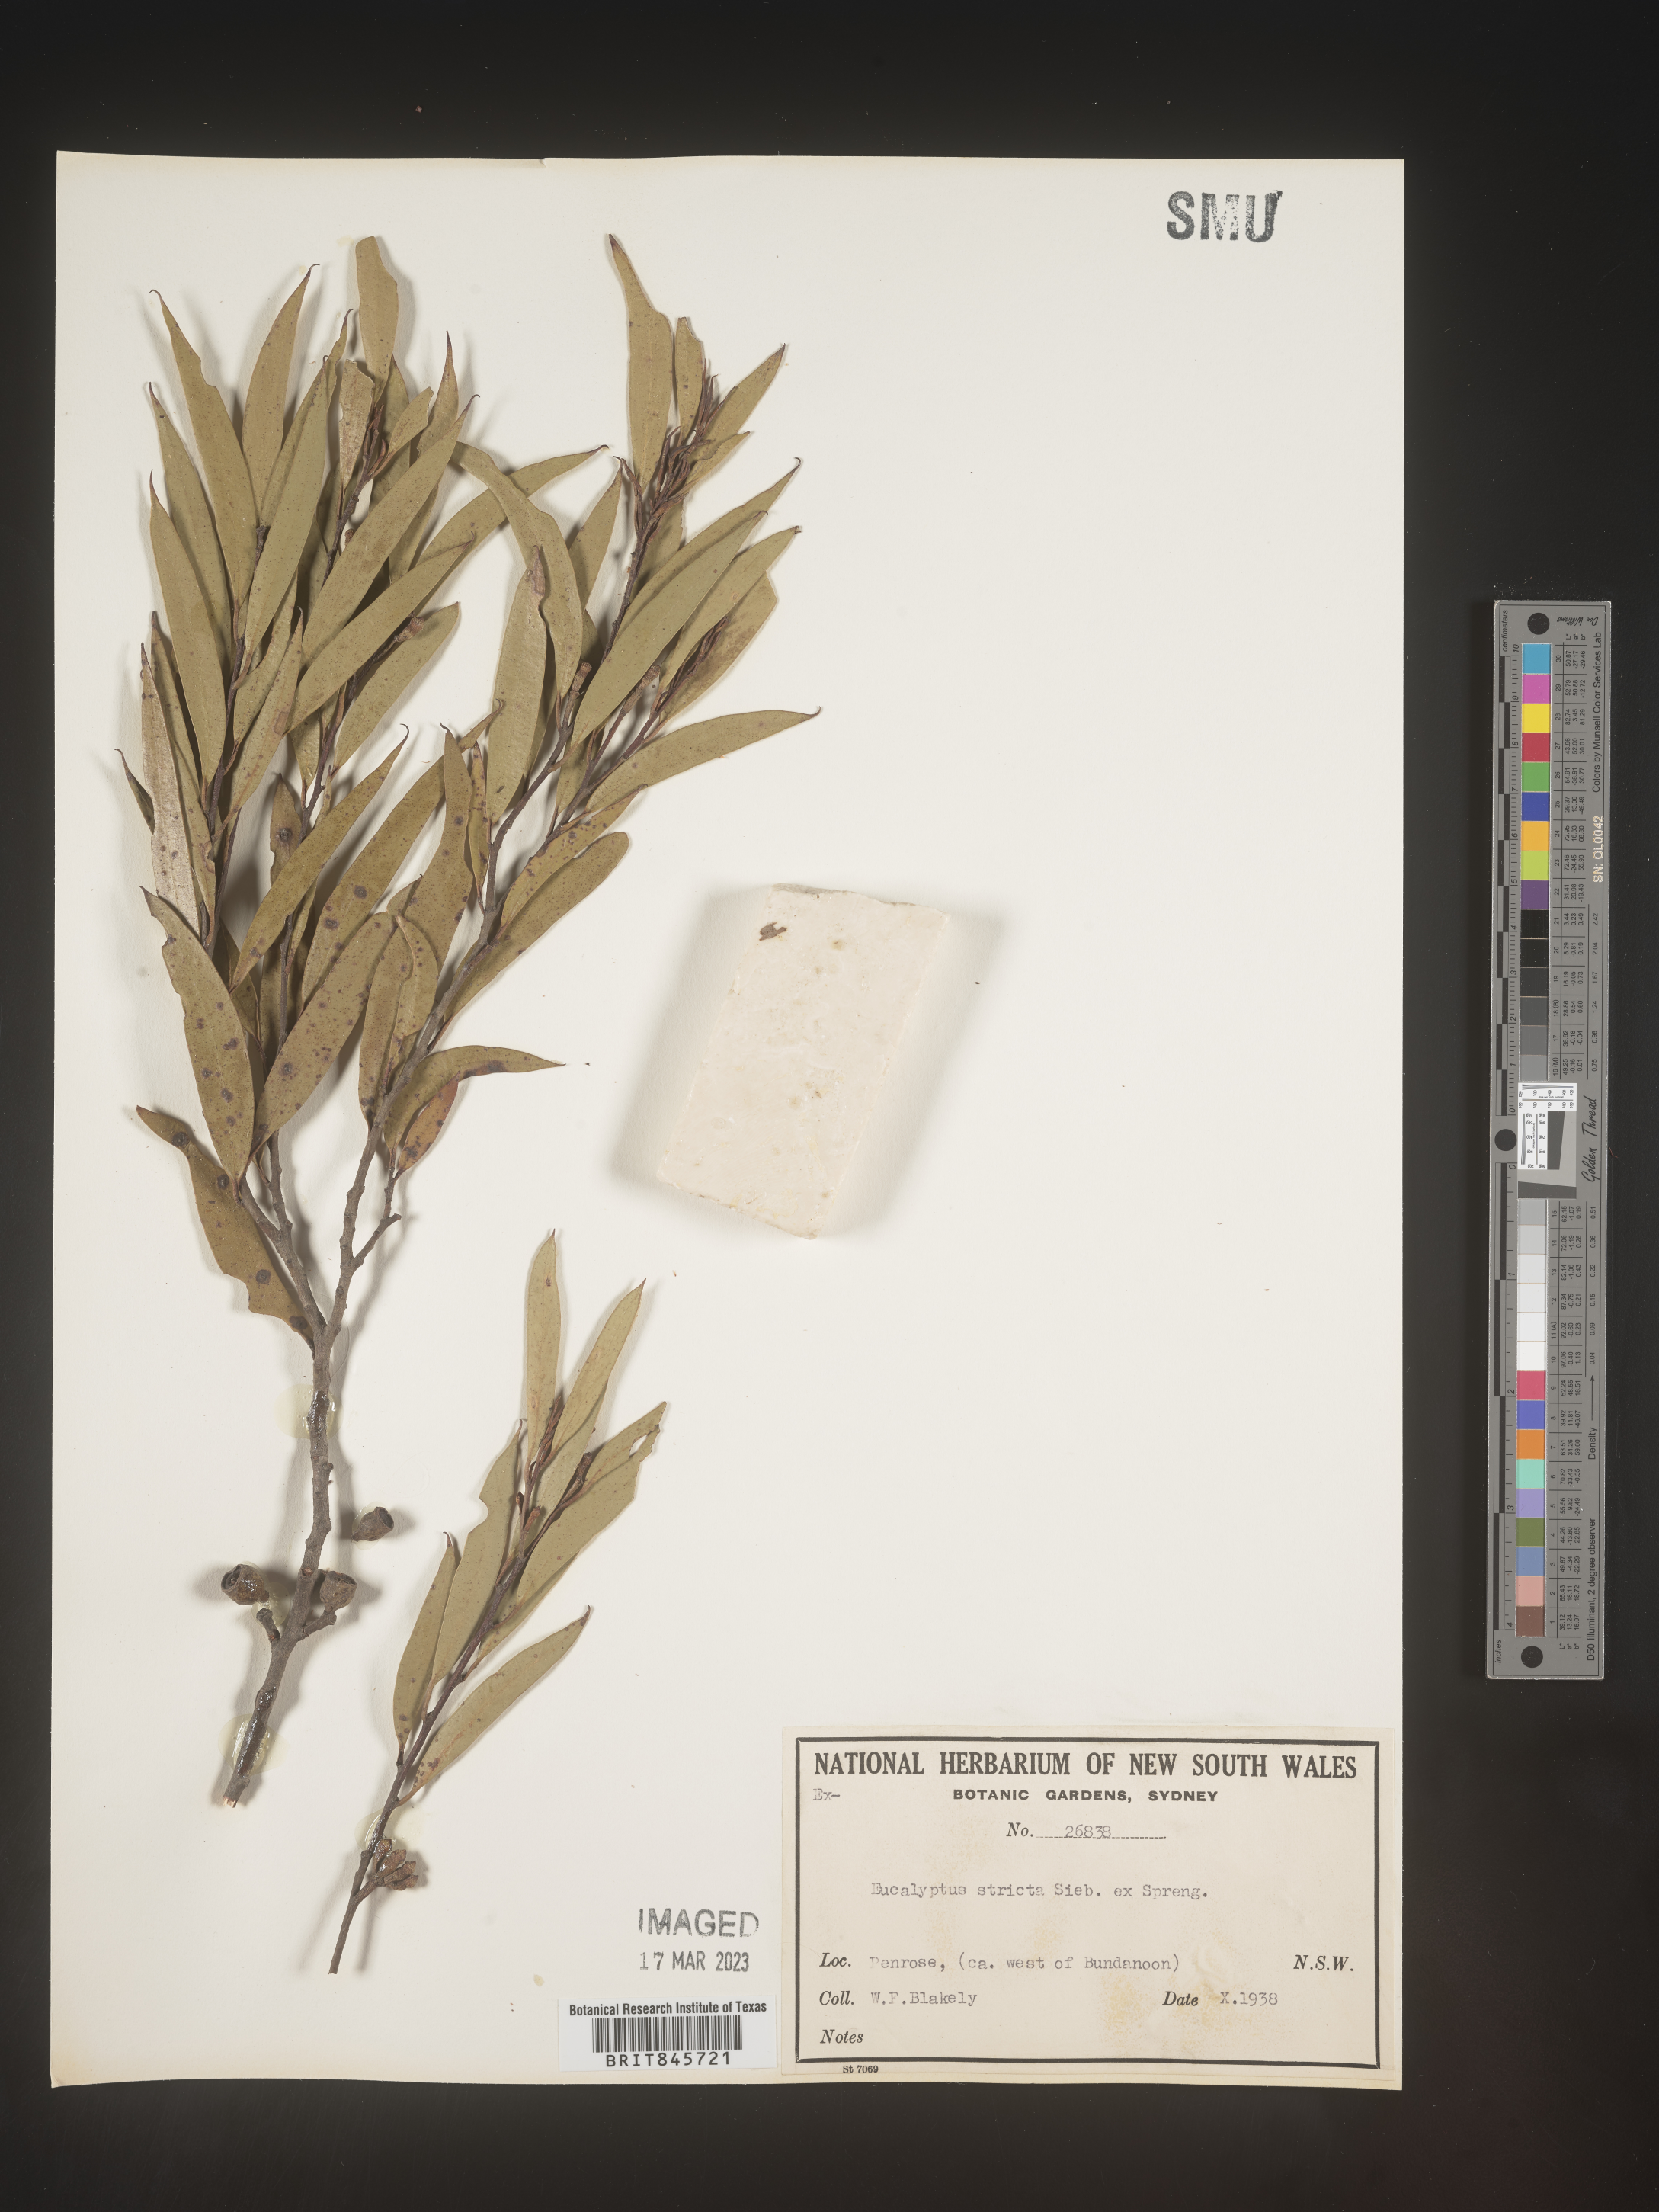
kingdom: Plantae
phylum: Tracheophyta
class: Magnoliopsida
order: Myrtales
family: Myrtaceae
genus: Eucalyptus
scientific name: Eucalyptus
